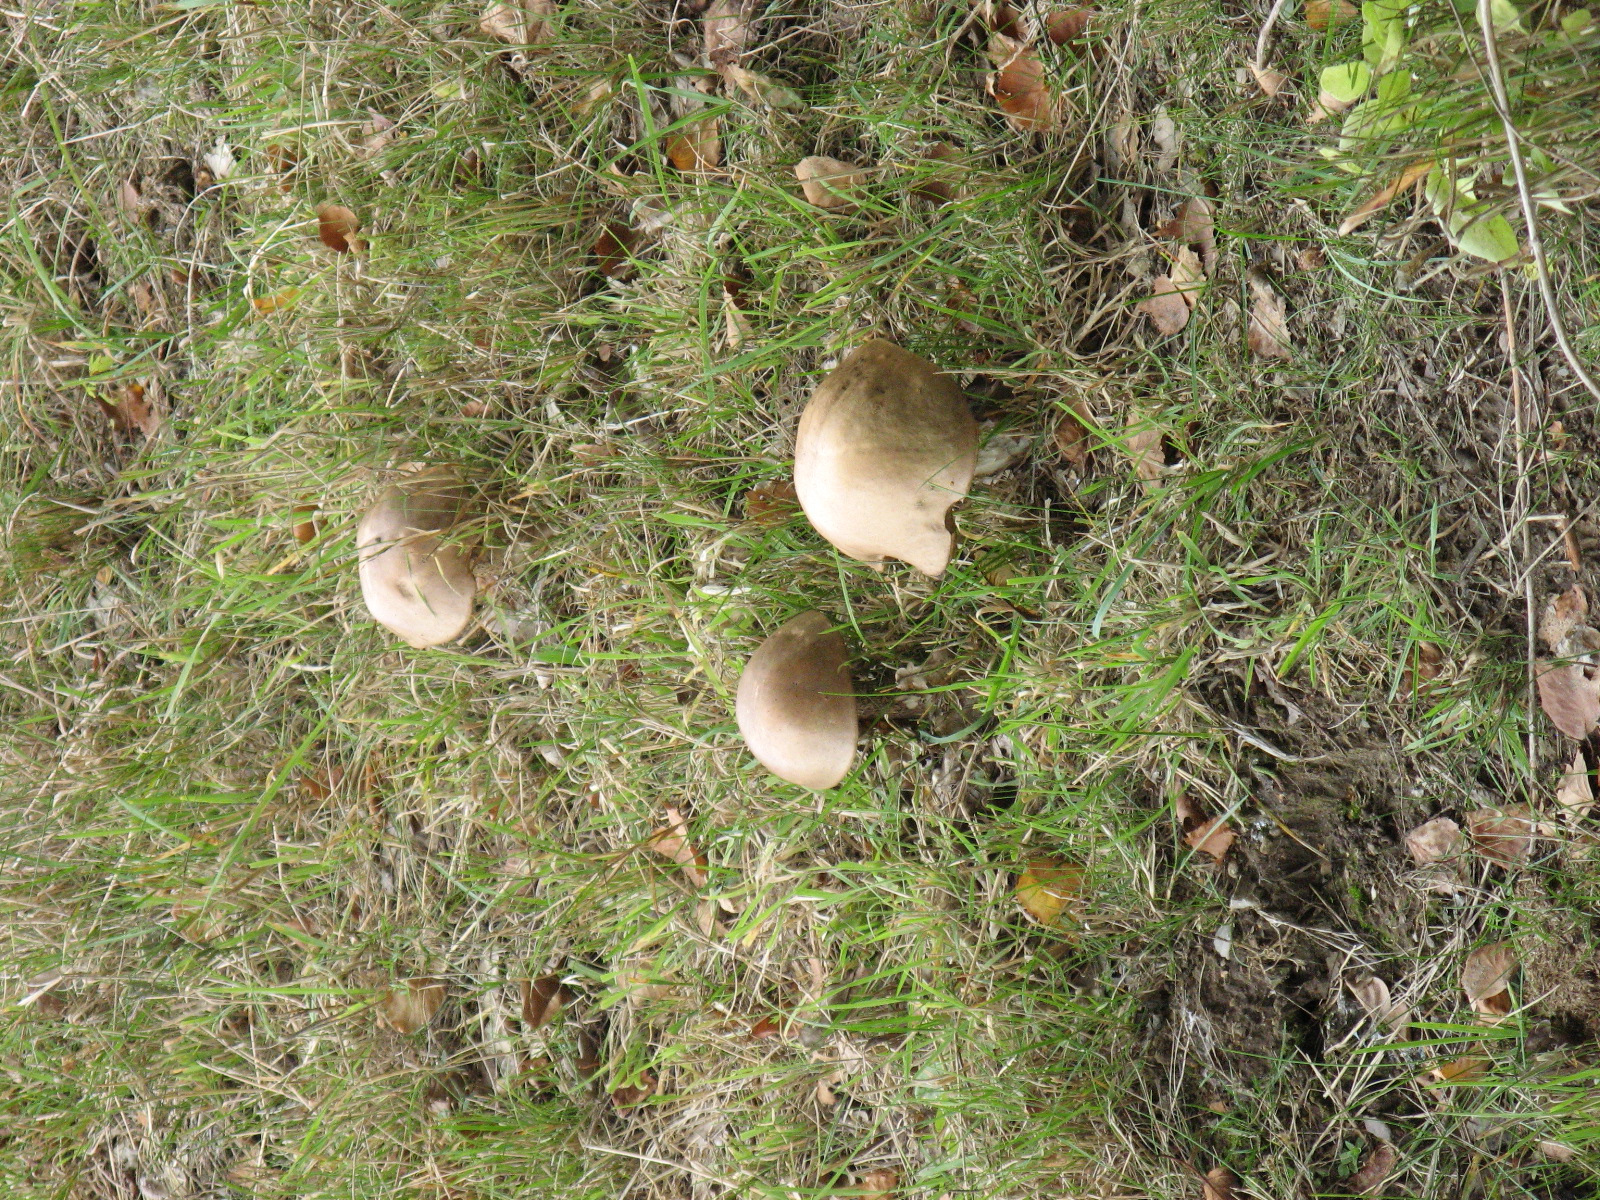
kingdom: Fungi
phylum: Basidiomycota
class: Agaricomycetes
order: Boletales
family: Boletaceae
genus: Leccinum
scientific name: Leccinum scabrum
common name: brun skælrørhat
